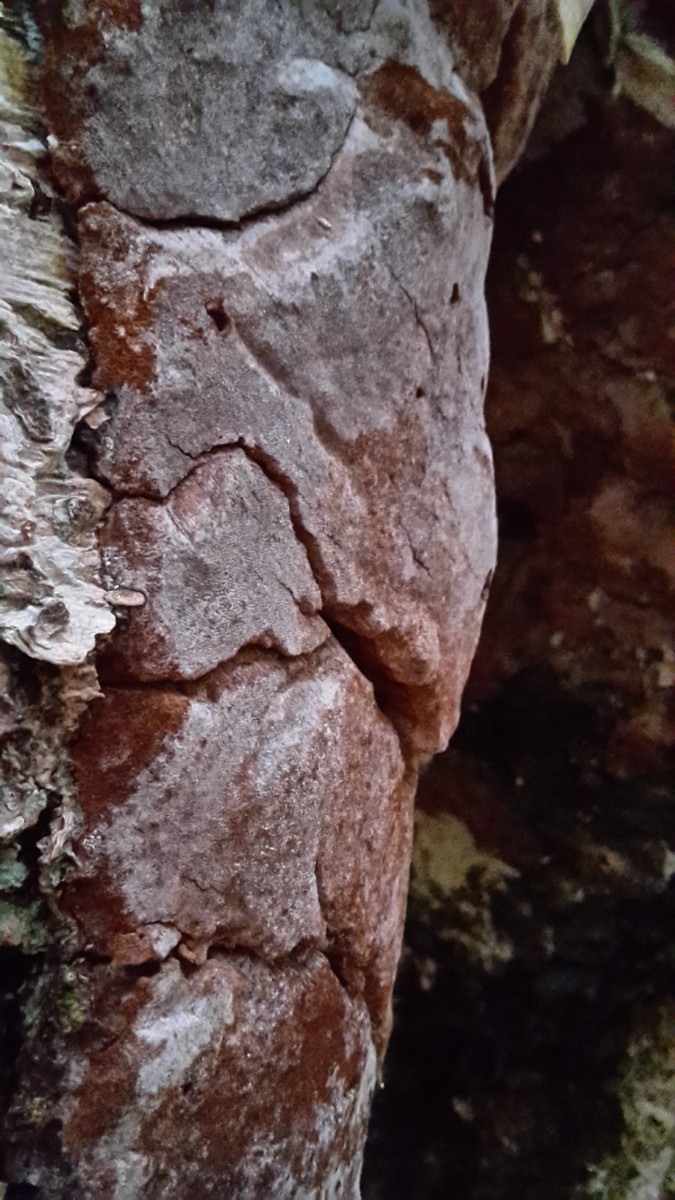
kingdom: Fungi
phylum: Basidiomycota
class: Agaricomycetes
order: Hymenochaetales
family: Hymenochaetaceae
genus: Phellinus
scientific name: Phellinus laevigatus
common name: glat ildporesvamp
